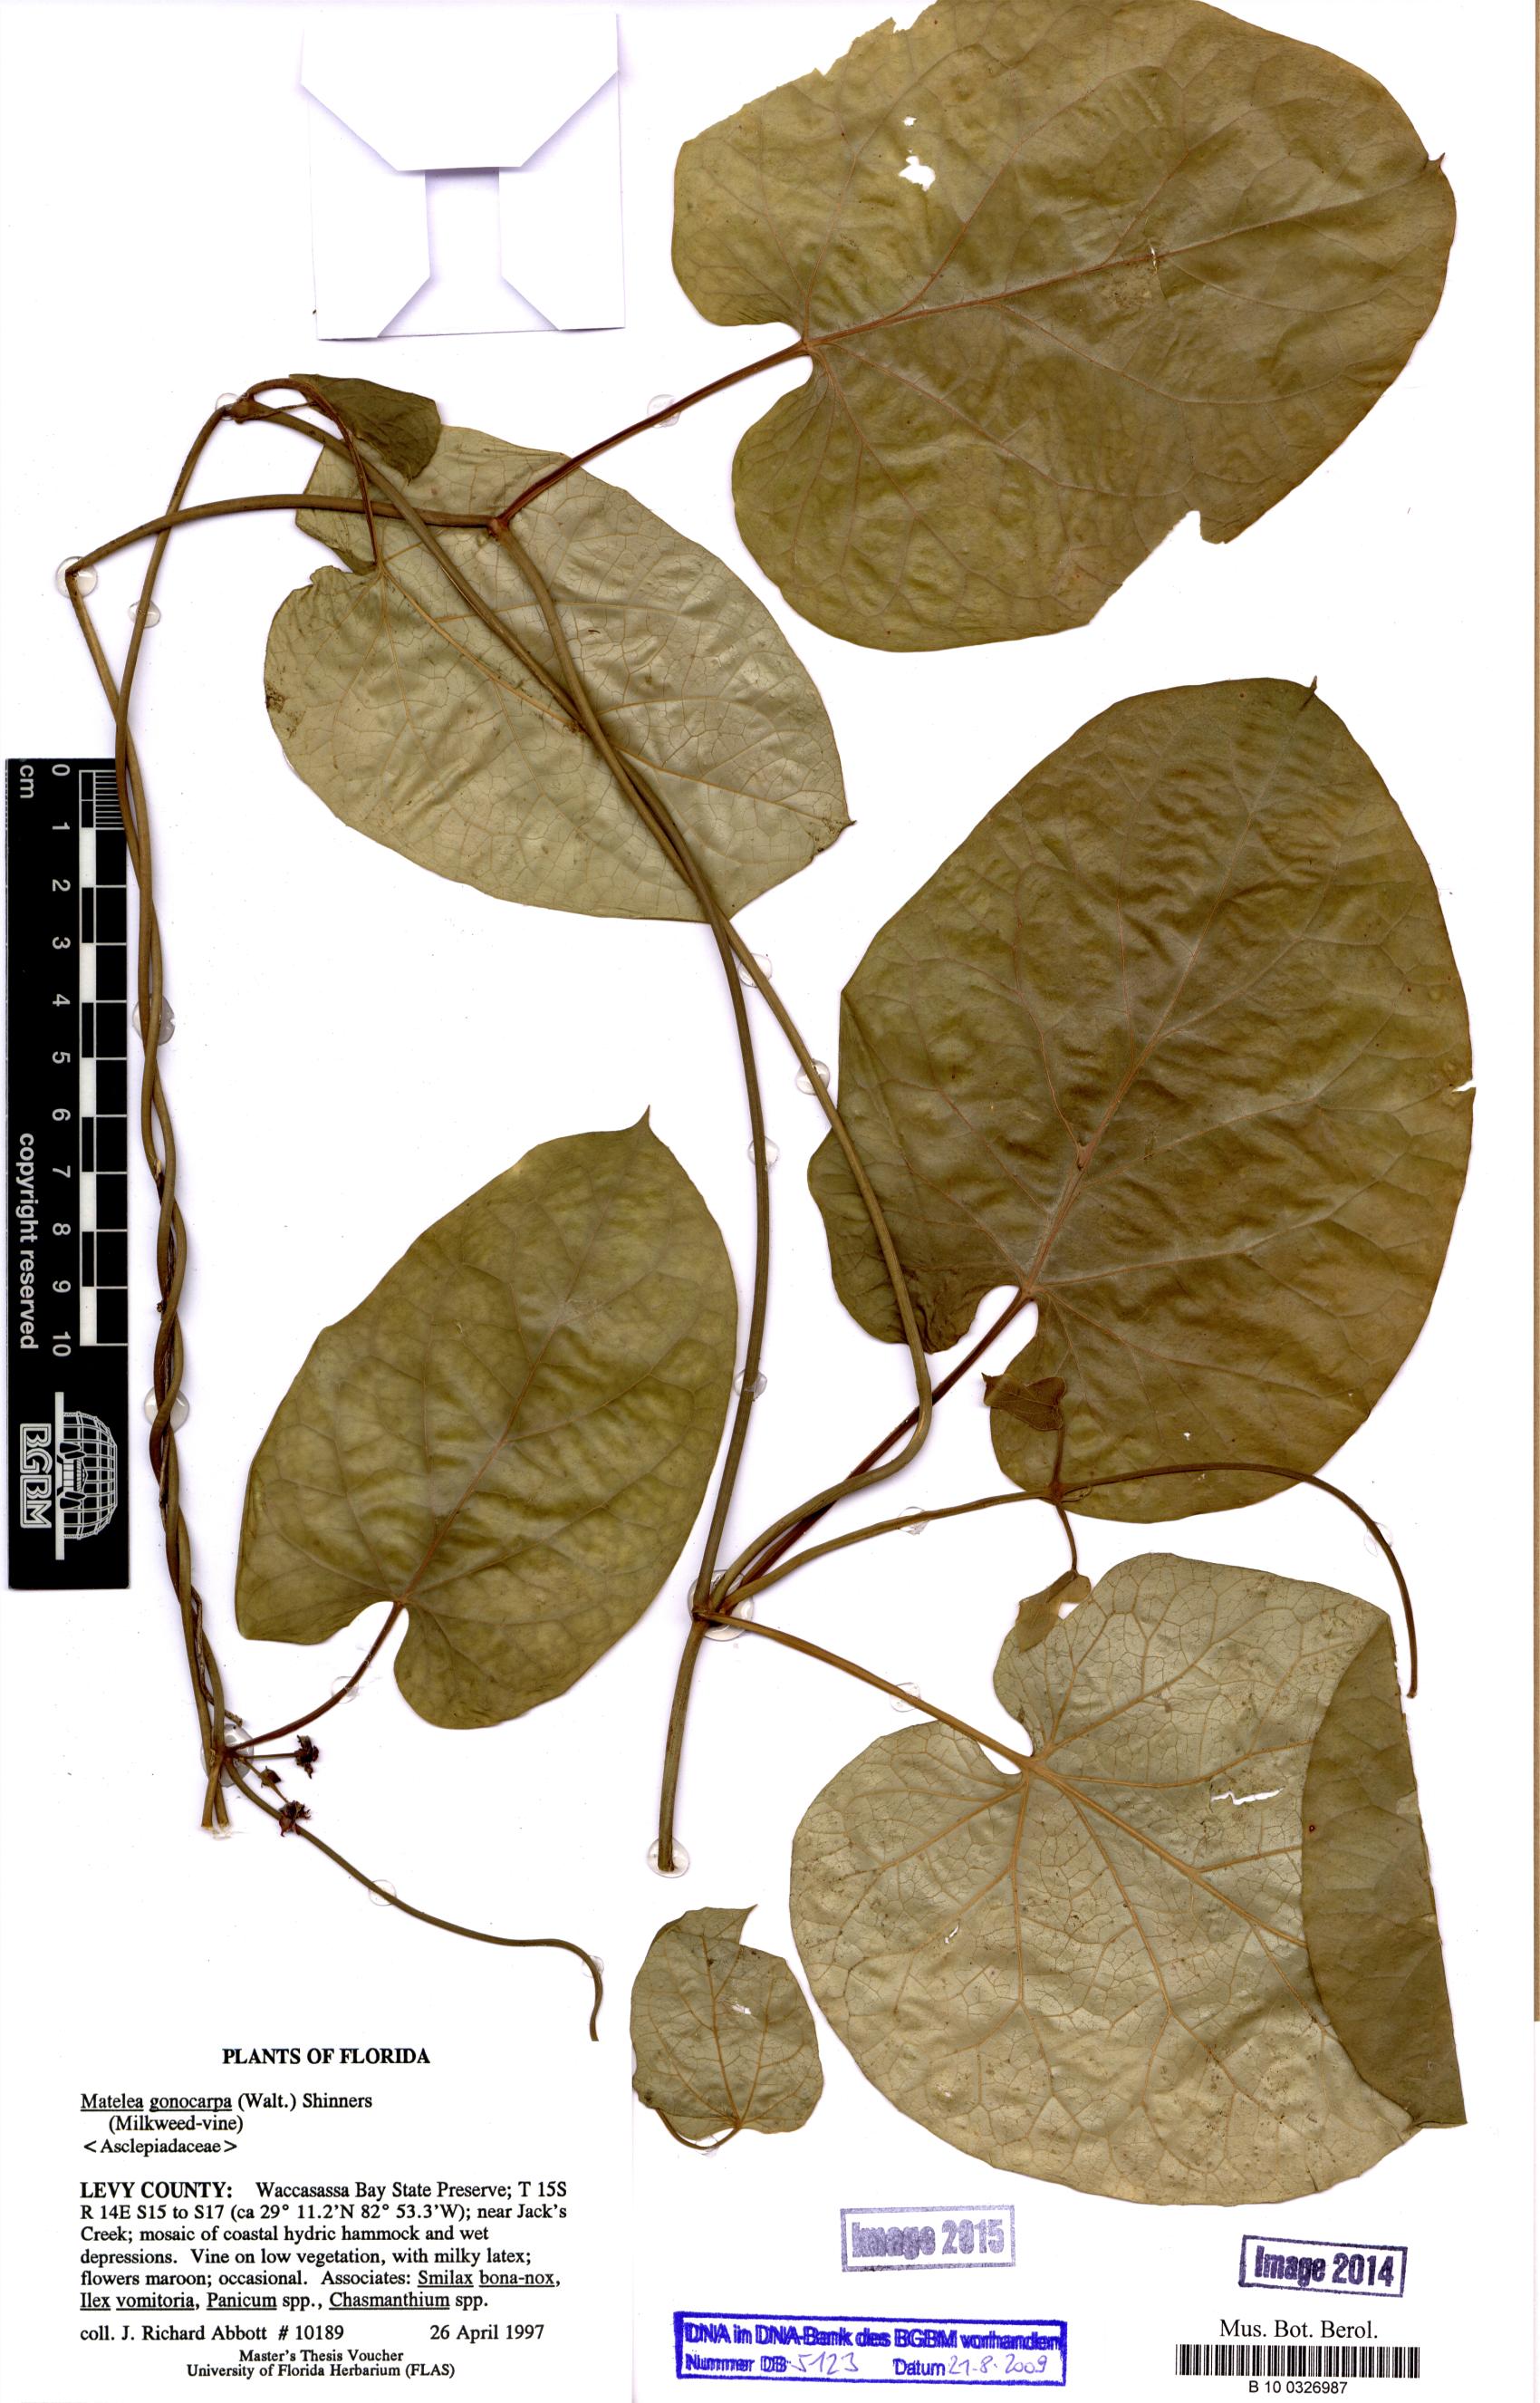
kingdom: Plantae
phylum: Tracheophyta
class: Magnoliopsida
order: Gentianales
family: Apocynaceae
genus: Gonolobus
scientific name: Gonolobus gonocarpus
